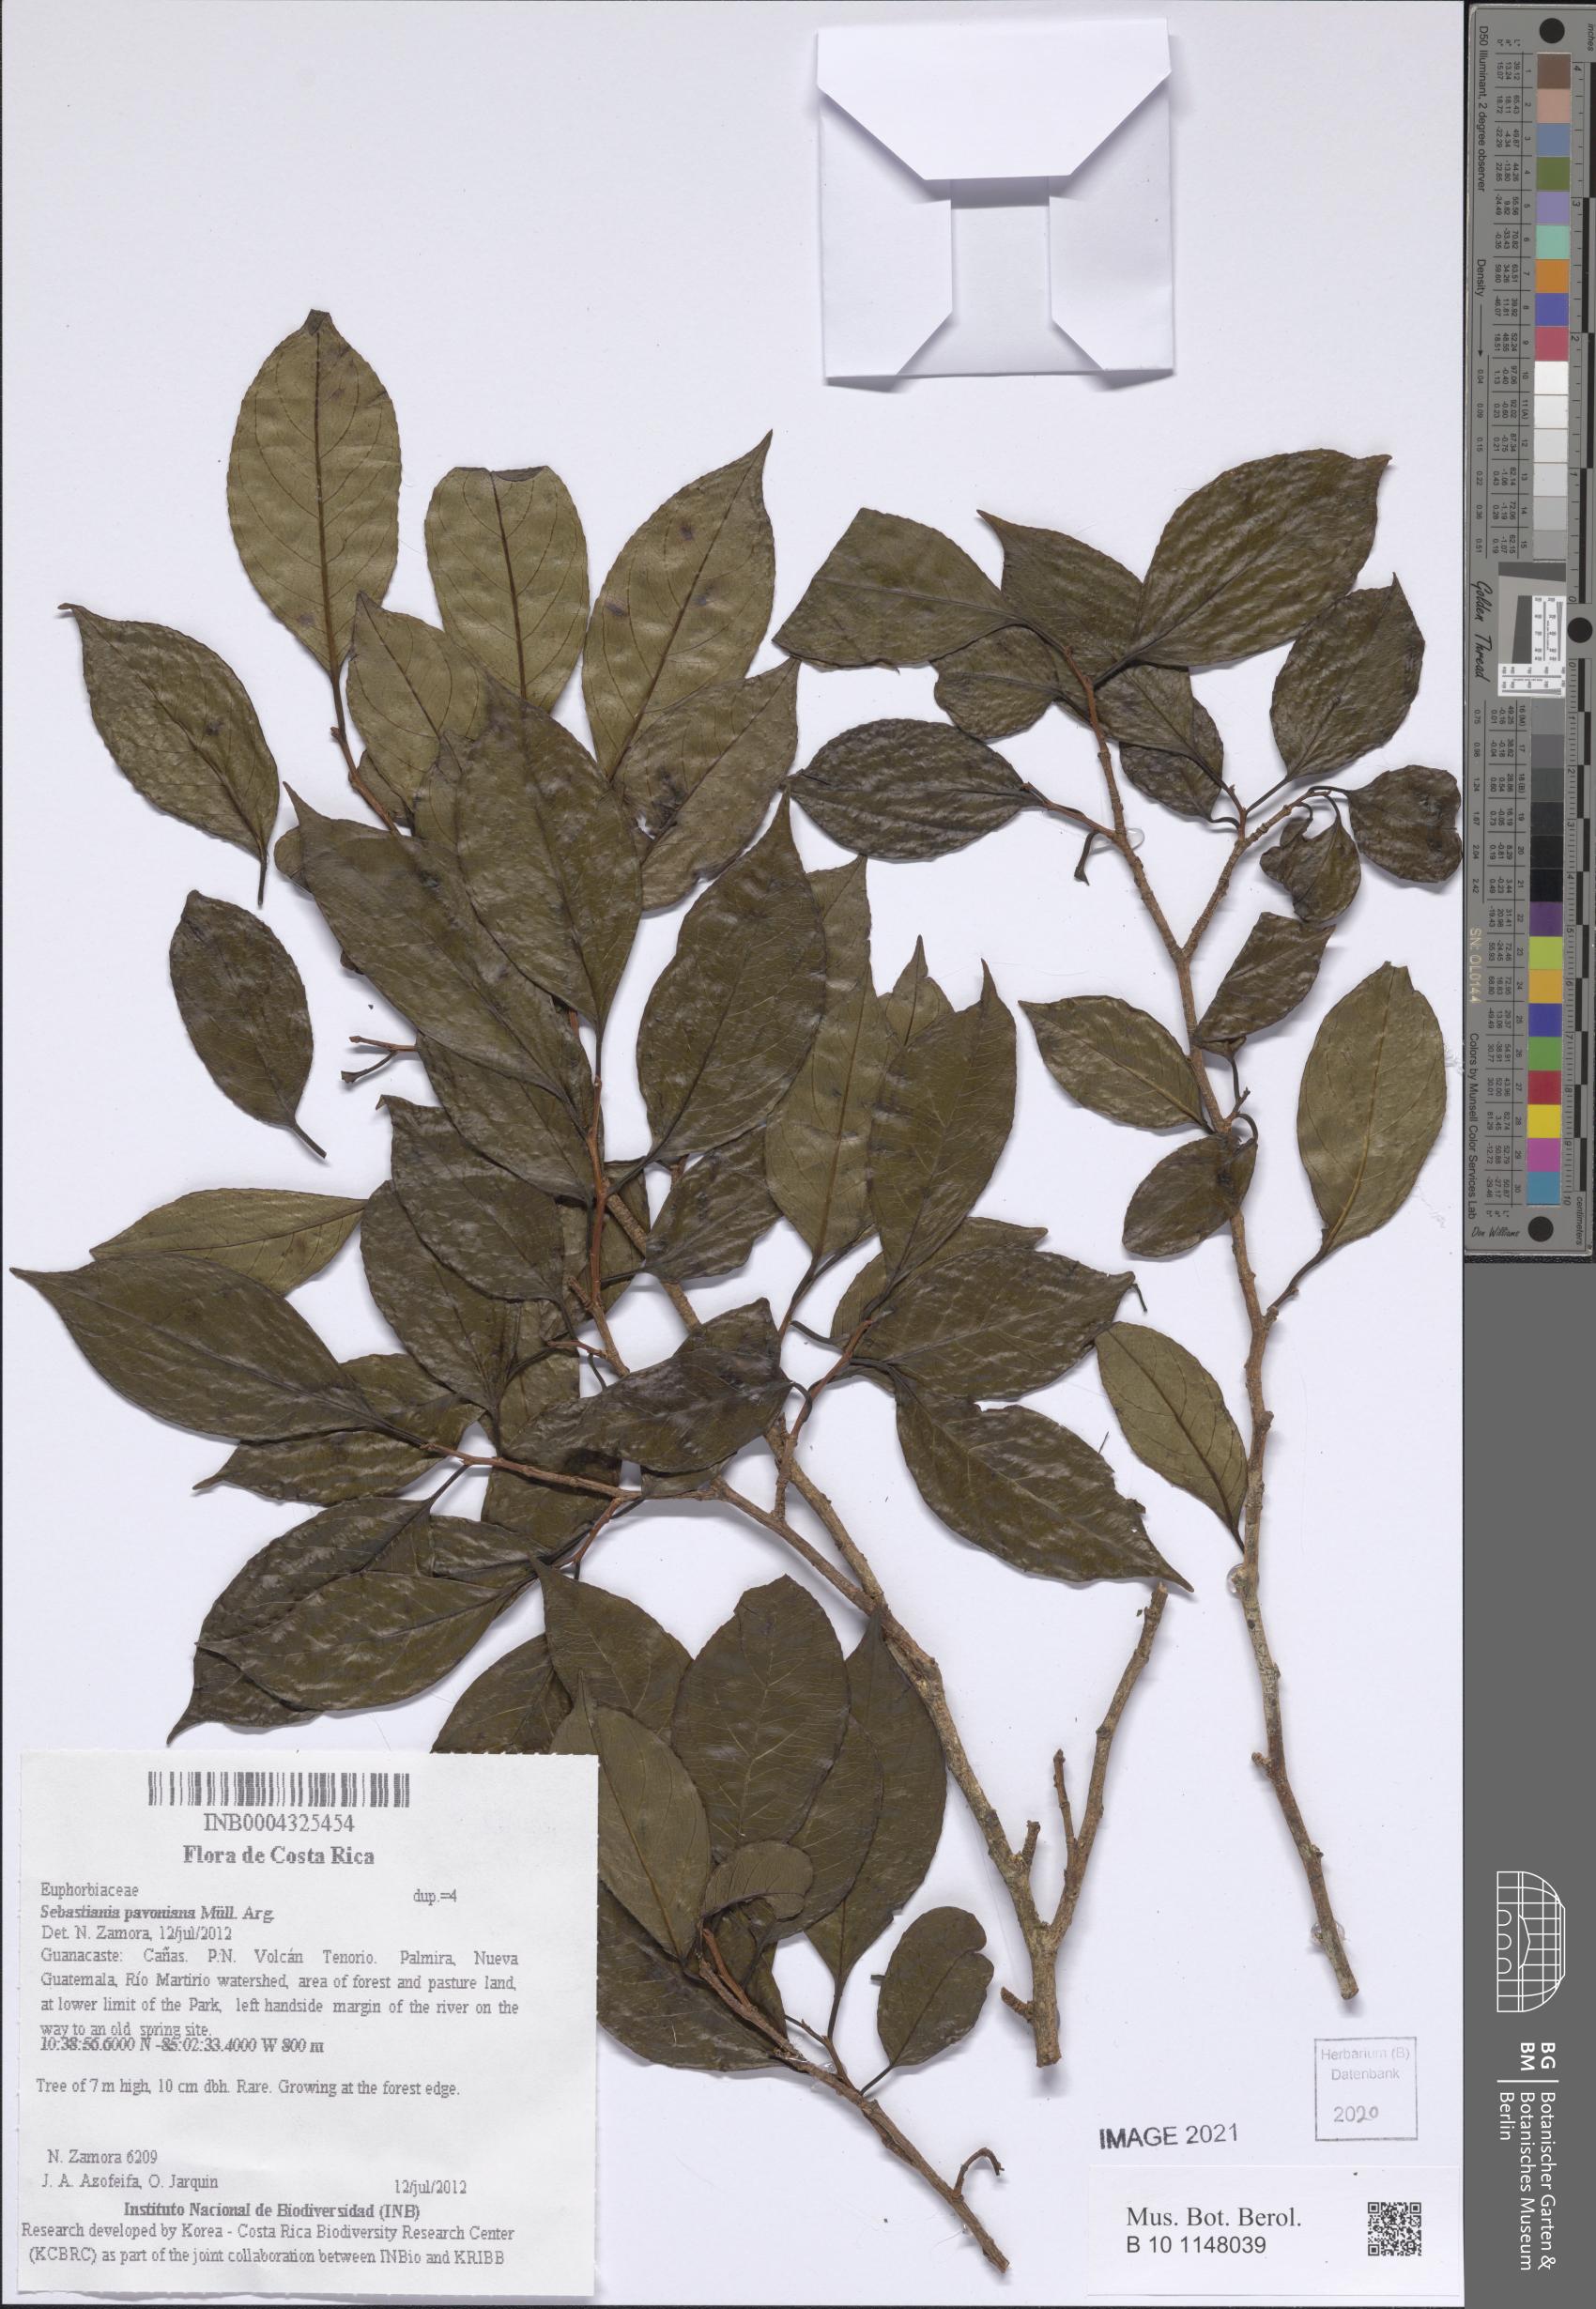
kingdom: Plantae
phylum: Tracheophyta
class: Magnoliopsida
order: Malpighiales
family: Euphorbiaceae
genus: Sebastiania
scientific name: Sebastiania pavoniana
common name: Mexican jumping-beans
